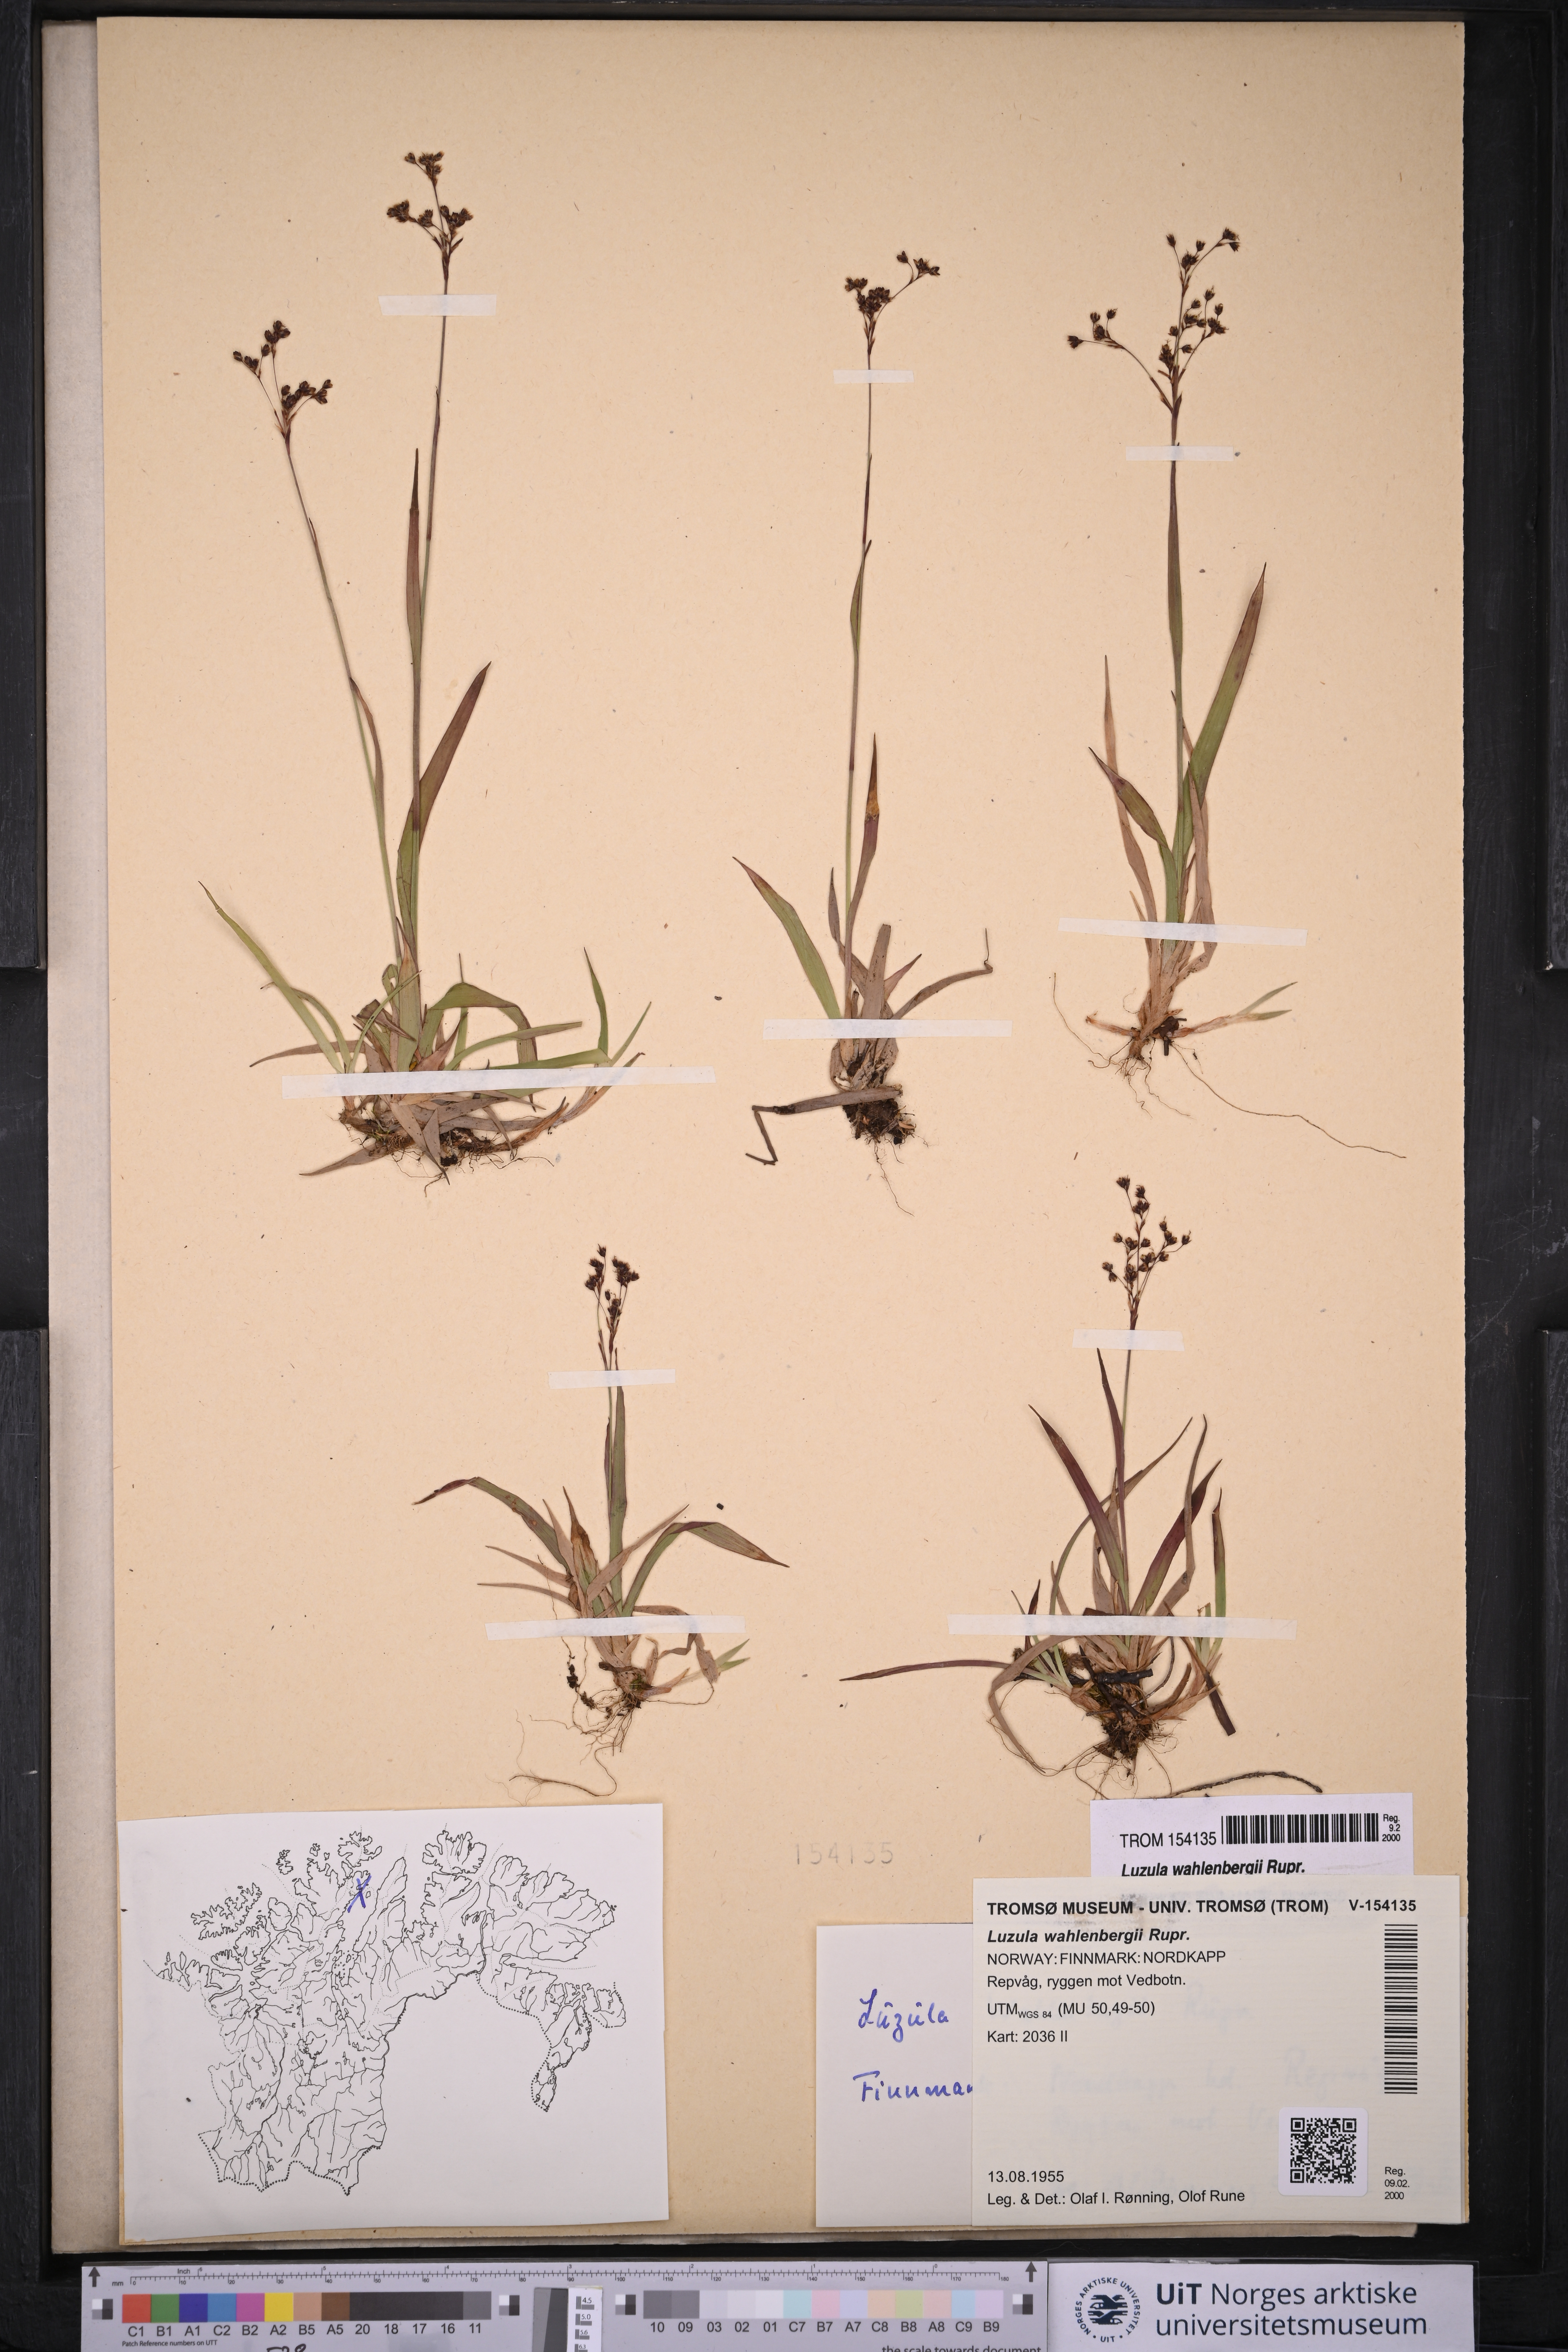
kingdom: Plantae
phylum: Tracheophyta
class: Liliopsida
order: Poales
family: Juncaceae
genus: Luzula
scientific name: Luzula wahlenbergii
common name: Wahlenberg's wood-rush
